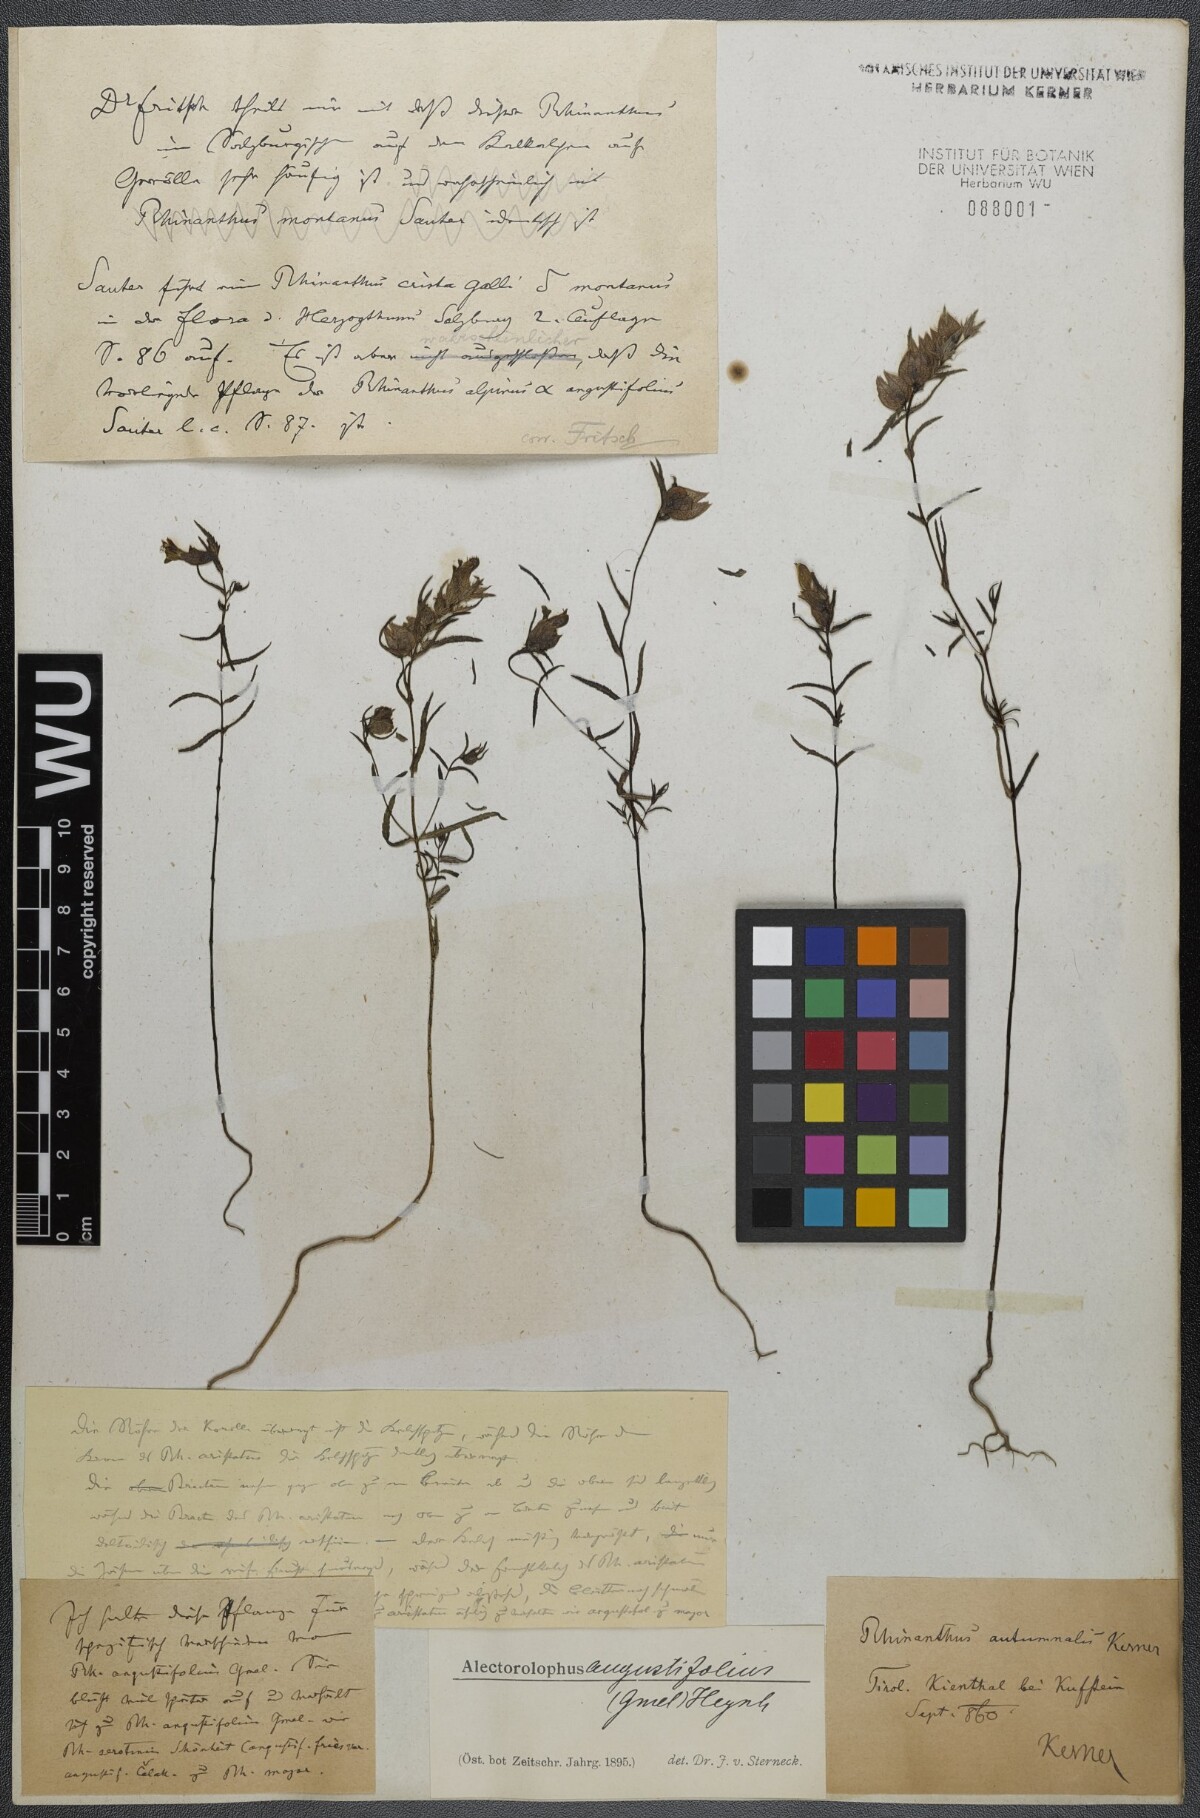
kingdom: Plantae
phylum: Tracheophyta
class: Magnoliopsida
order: Lamiales
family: Orobanchaceae
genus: Rhinanthus
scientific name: Rhinanthus
